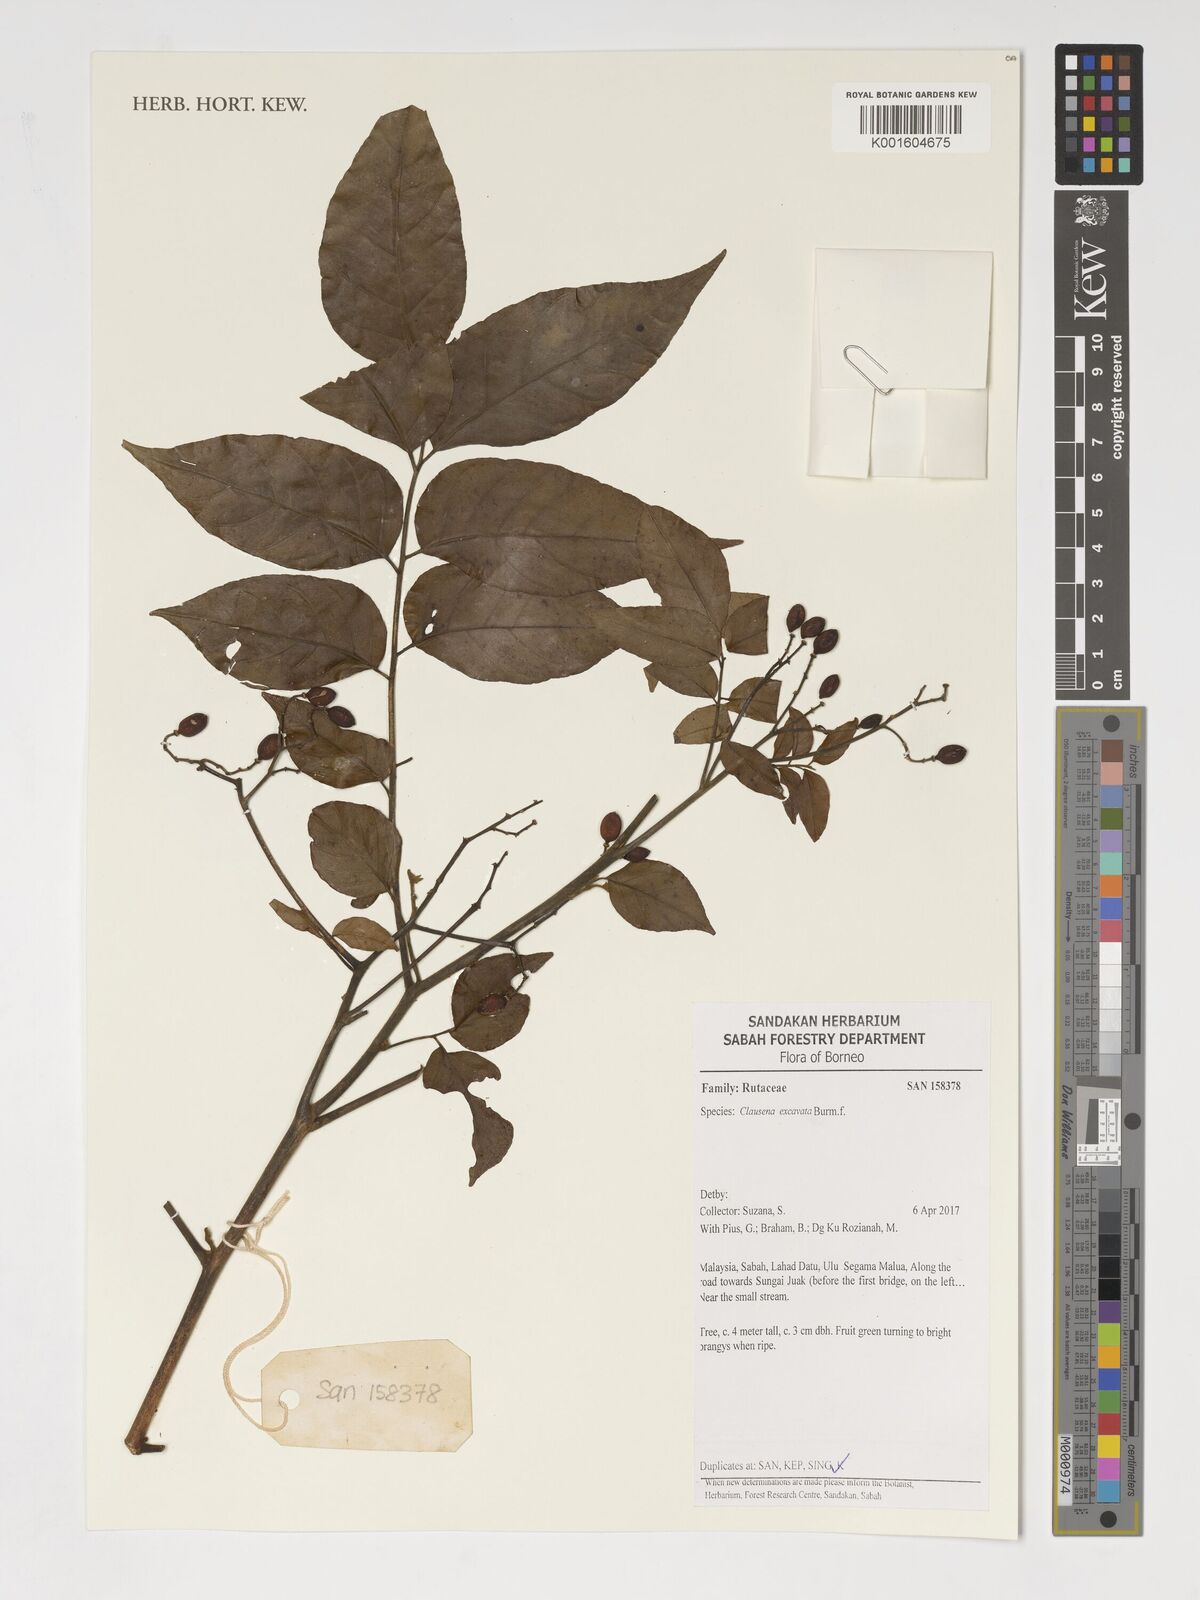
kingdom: Plantae
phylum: Tracheophyta
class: Magnoliopsida
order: Sapindales
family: Rutaceae
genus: Clausena
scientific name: Clausena excavata
